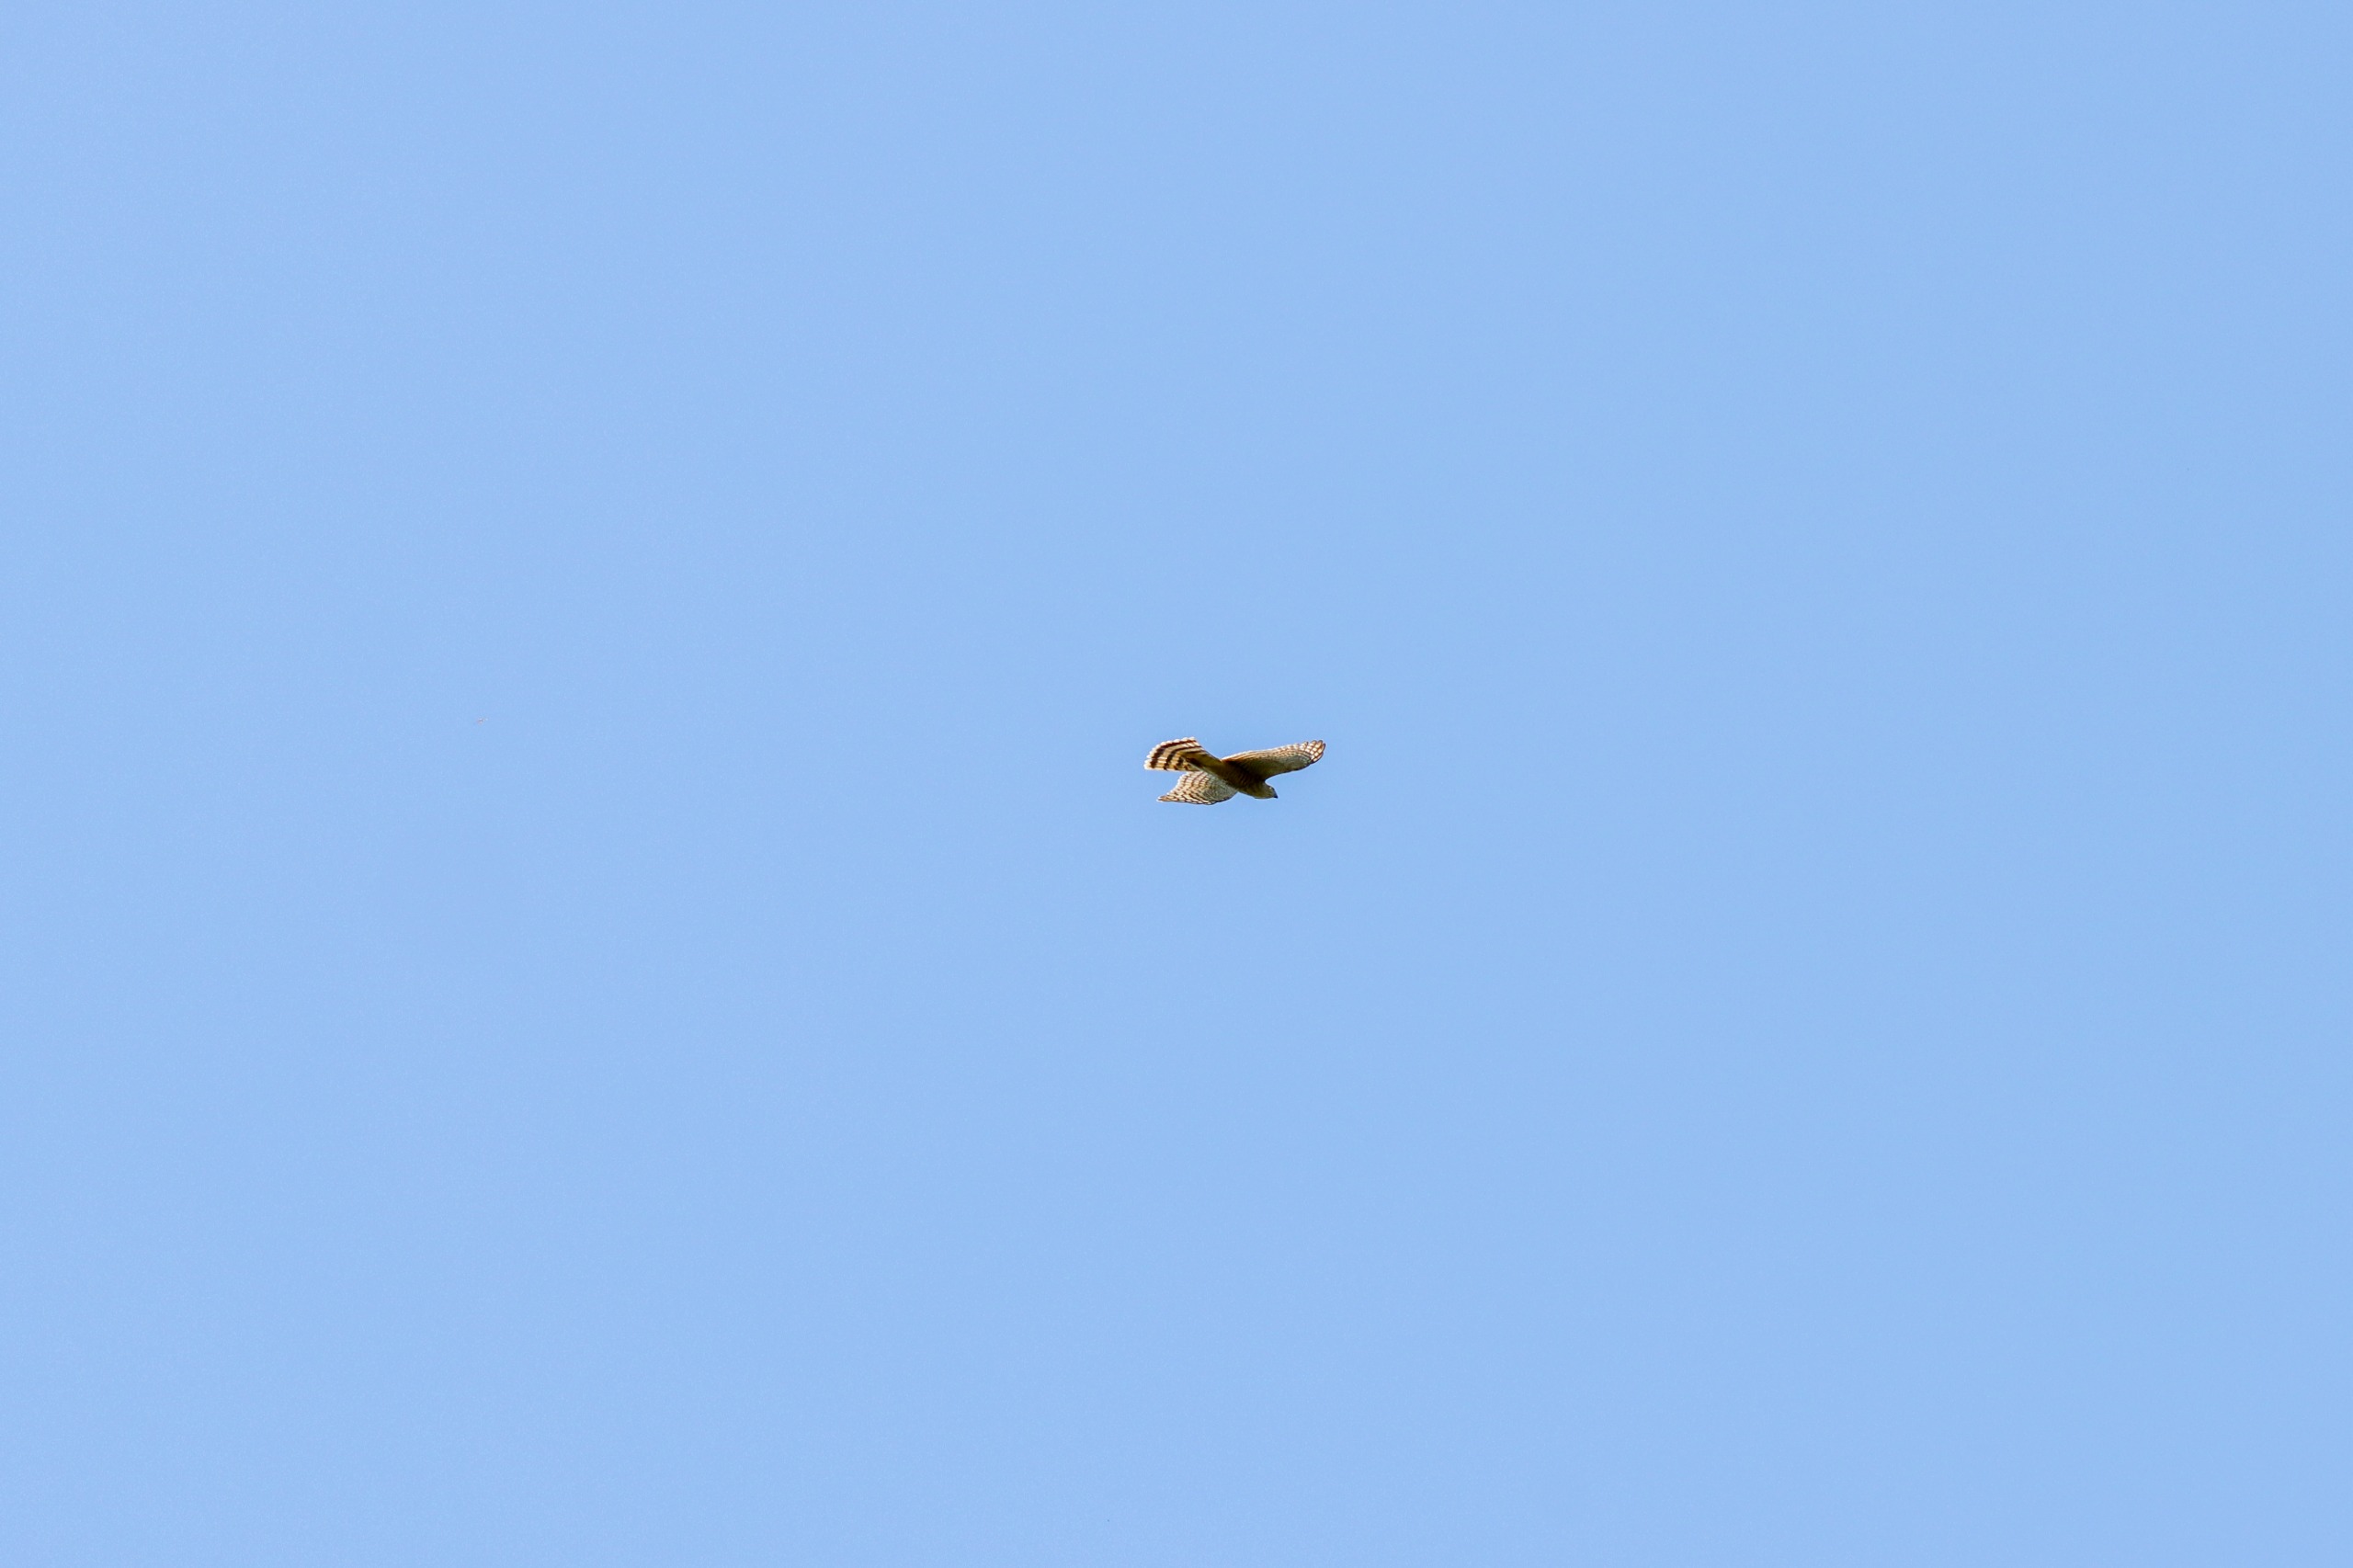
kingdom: Animalia
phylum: Chordata
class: Aves
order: Accipitriformes
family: Accipitridae
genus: Accipiter
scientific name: Accipiter nisus
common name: Spurvehøg
